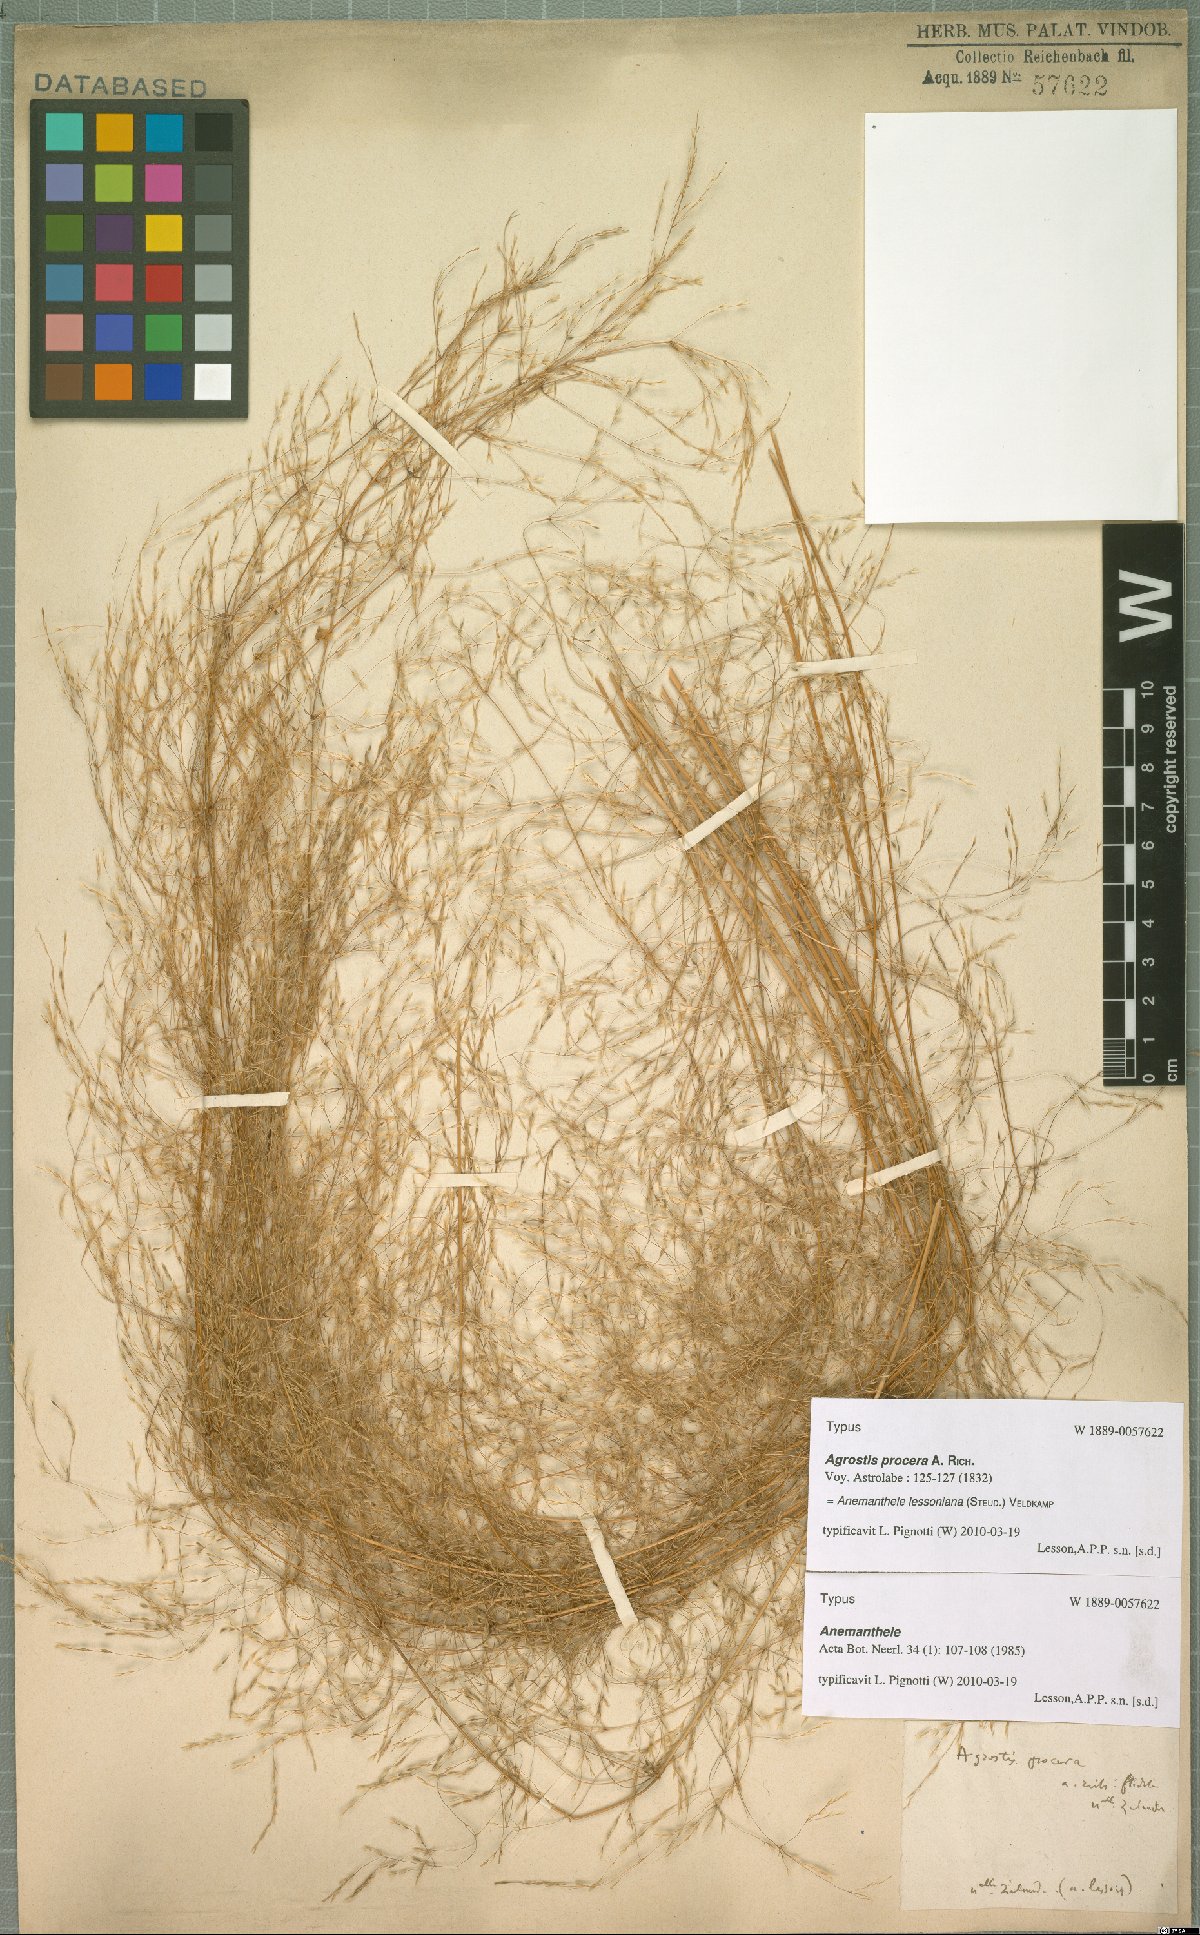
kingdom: Plantae
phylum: Tracheophyta
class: Liliopsida
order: Poales
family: Poaceae
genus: Anemanthele
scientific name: Anemanthele lessoniana
